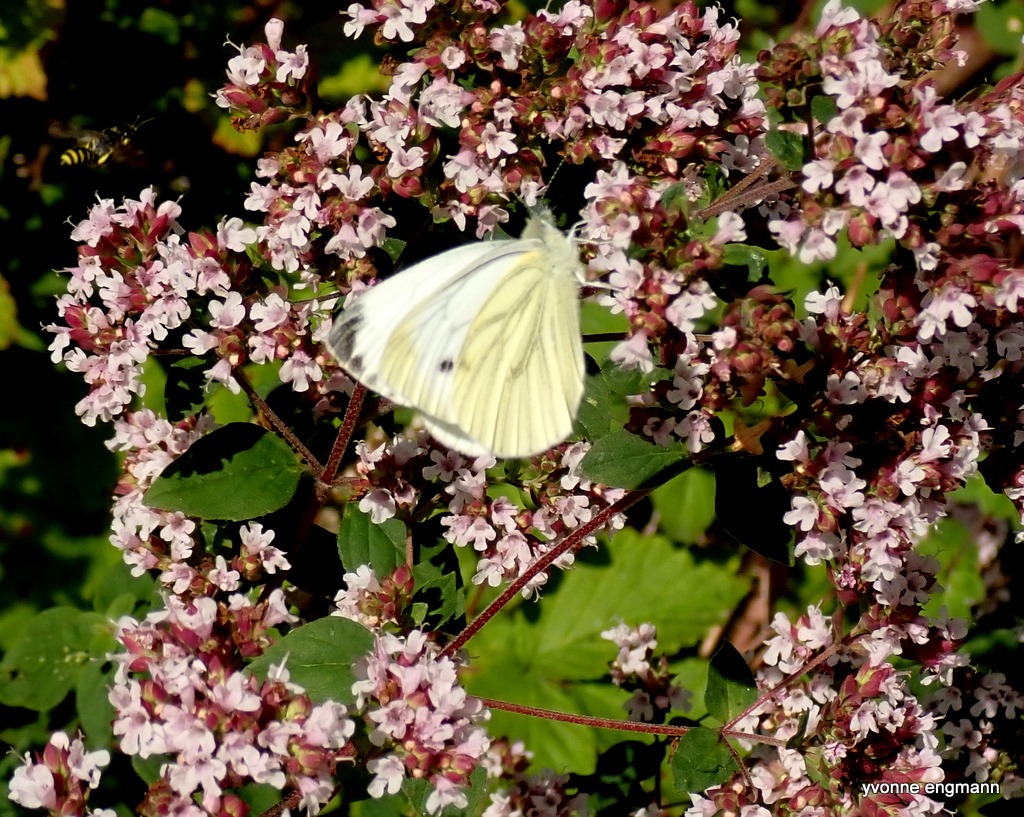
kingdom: Animalia
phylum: Arthropoda
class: Insecta
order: Lepidoptera
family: Pieridae
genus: Pieris
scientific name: Pieris napi
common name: Grønåret kålsommerfugl
